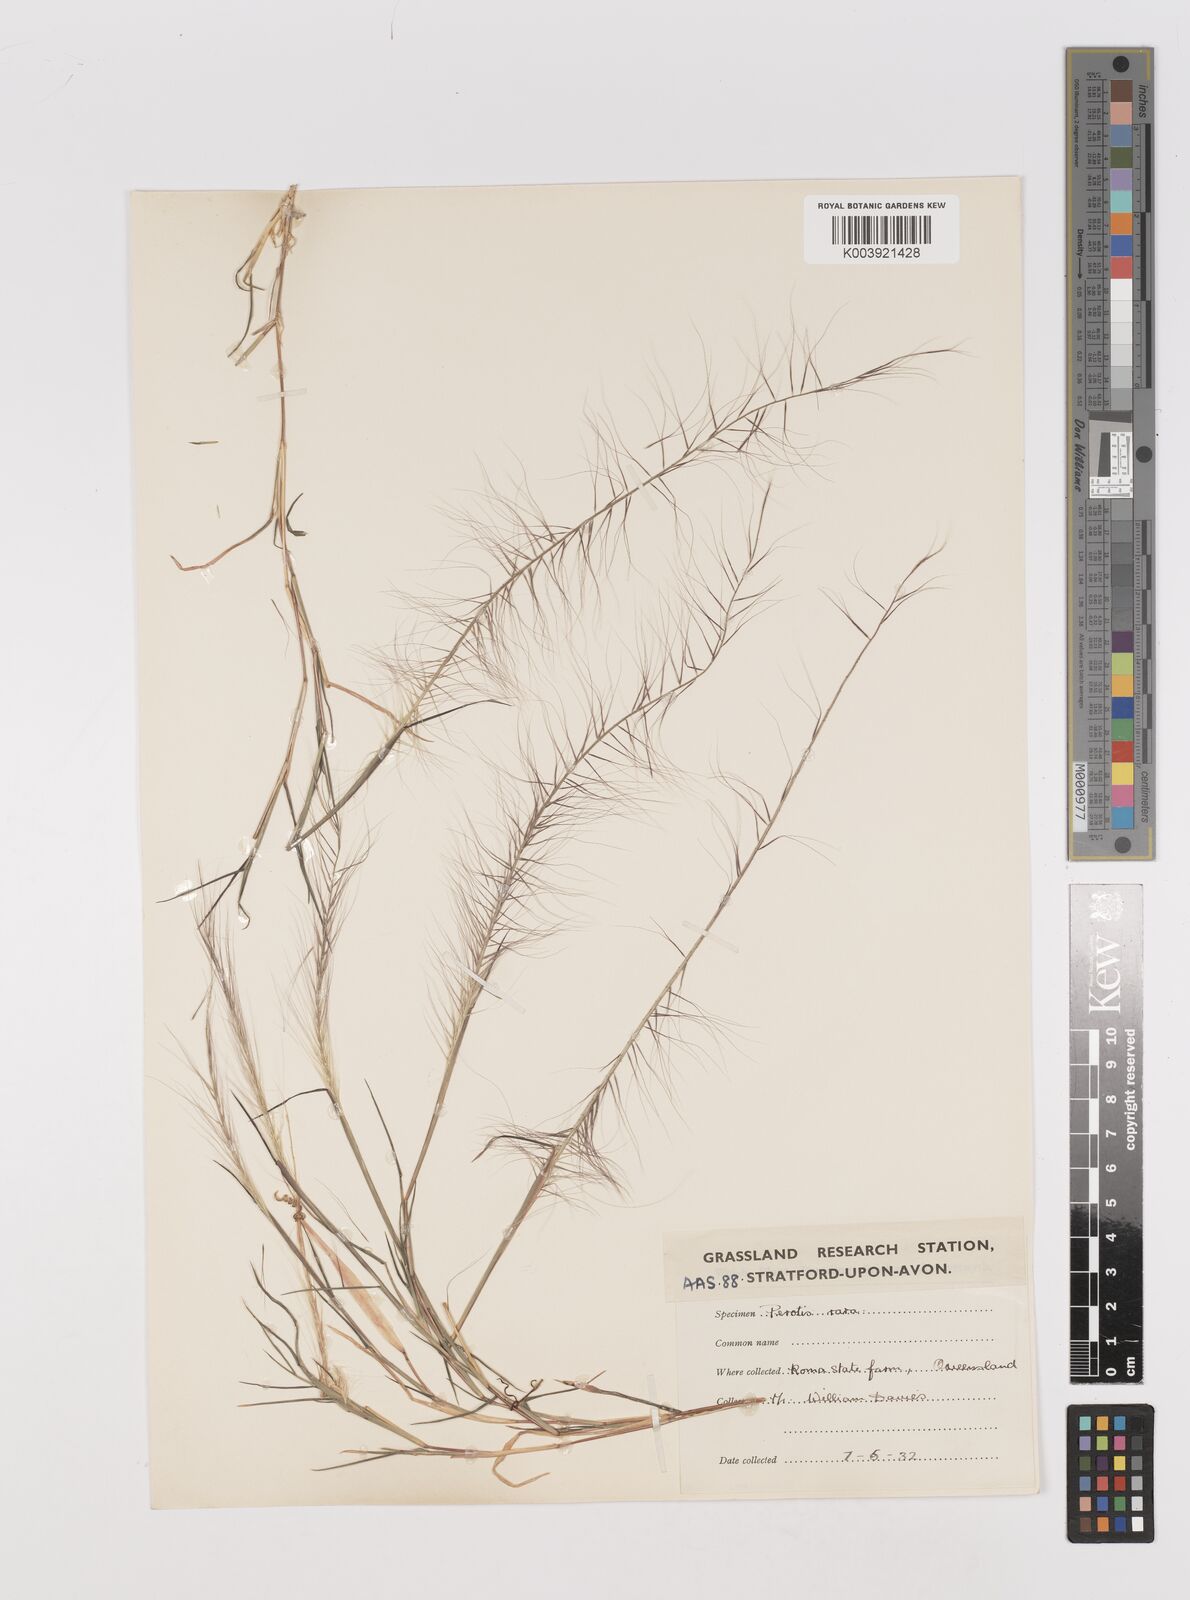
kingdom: Plantae
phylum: Tracheophyta
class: Liliopsida
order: Poales
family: Poaceae
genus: Perotis
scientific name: Perotis rara
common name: Comet grass
